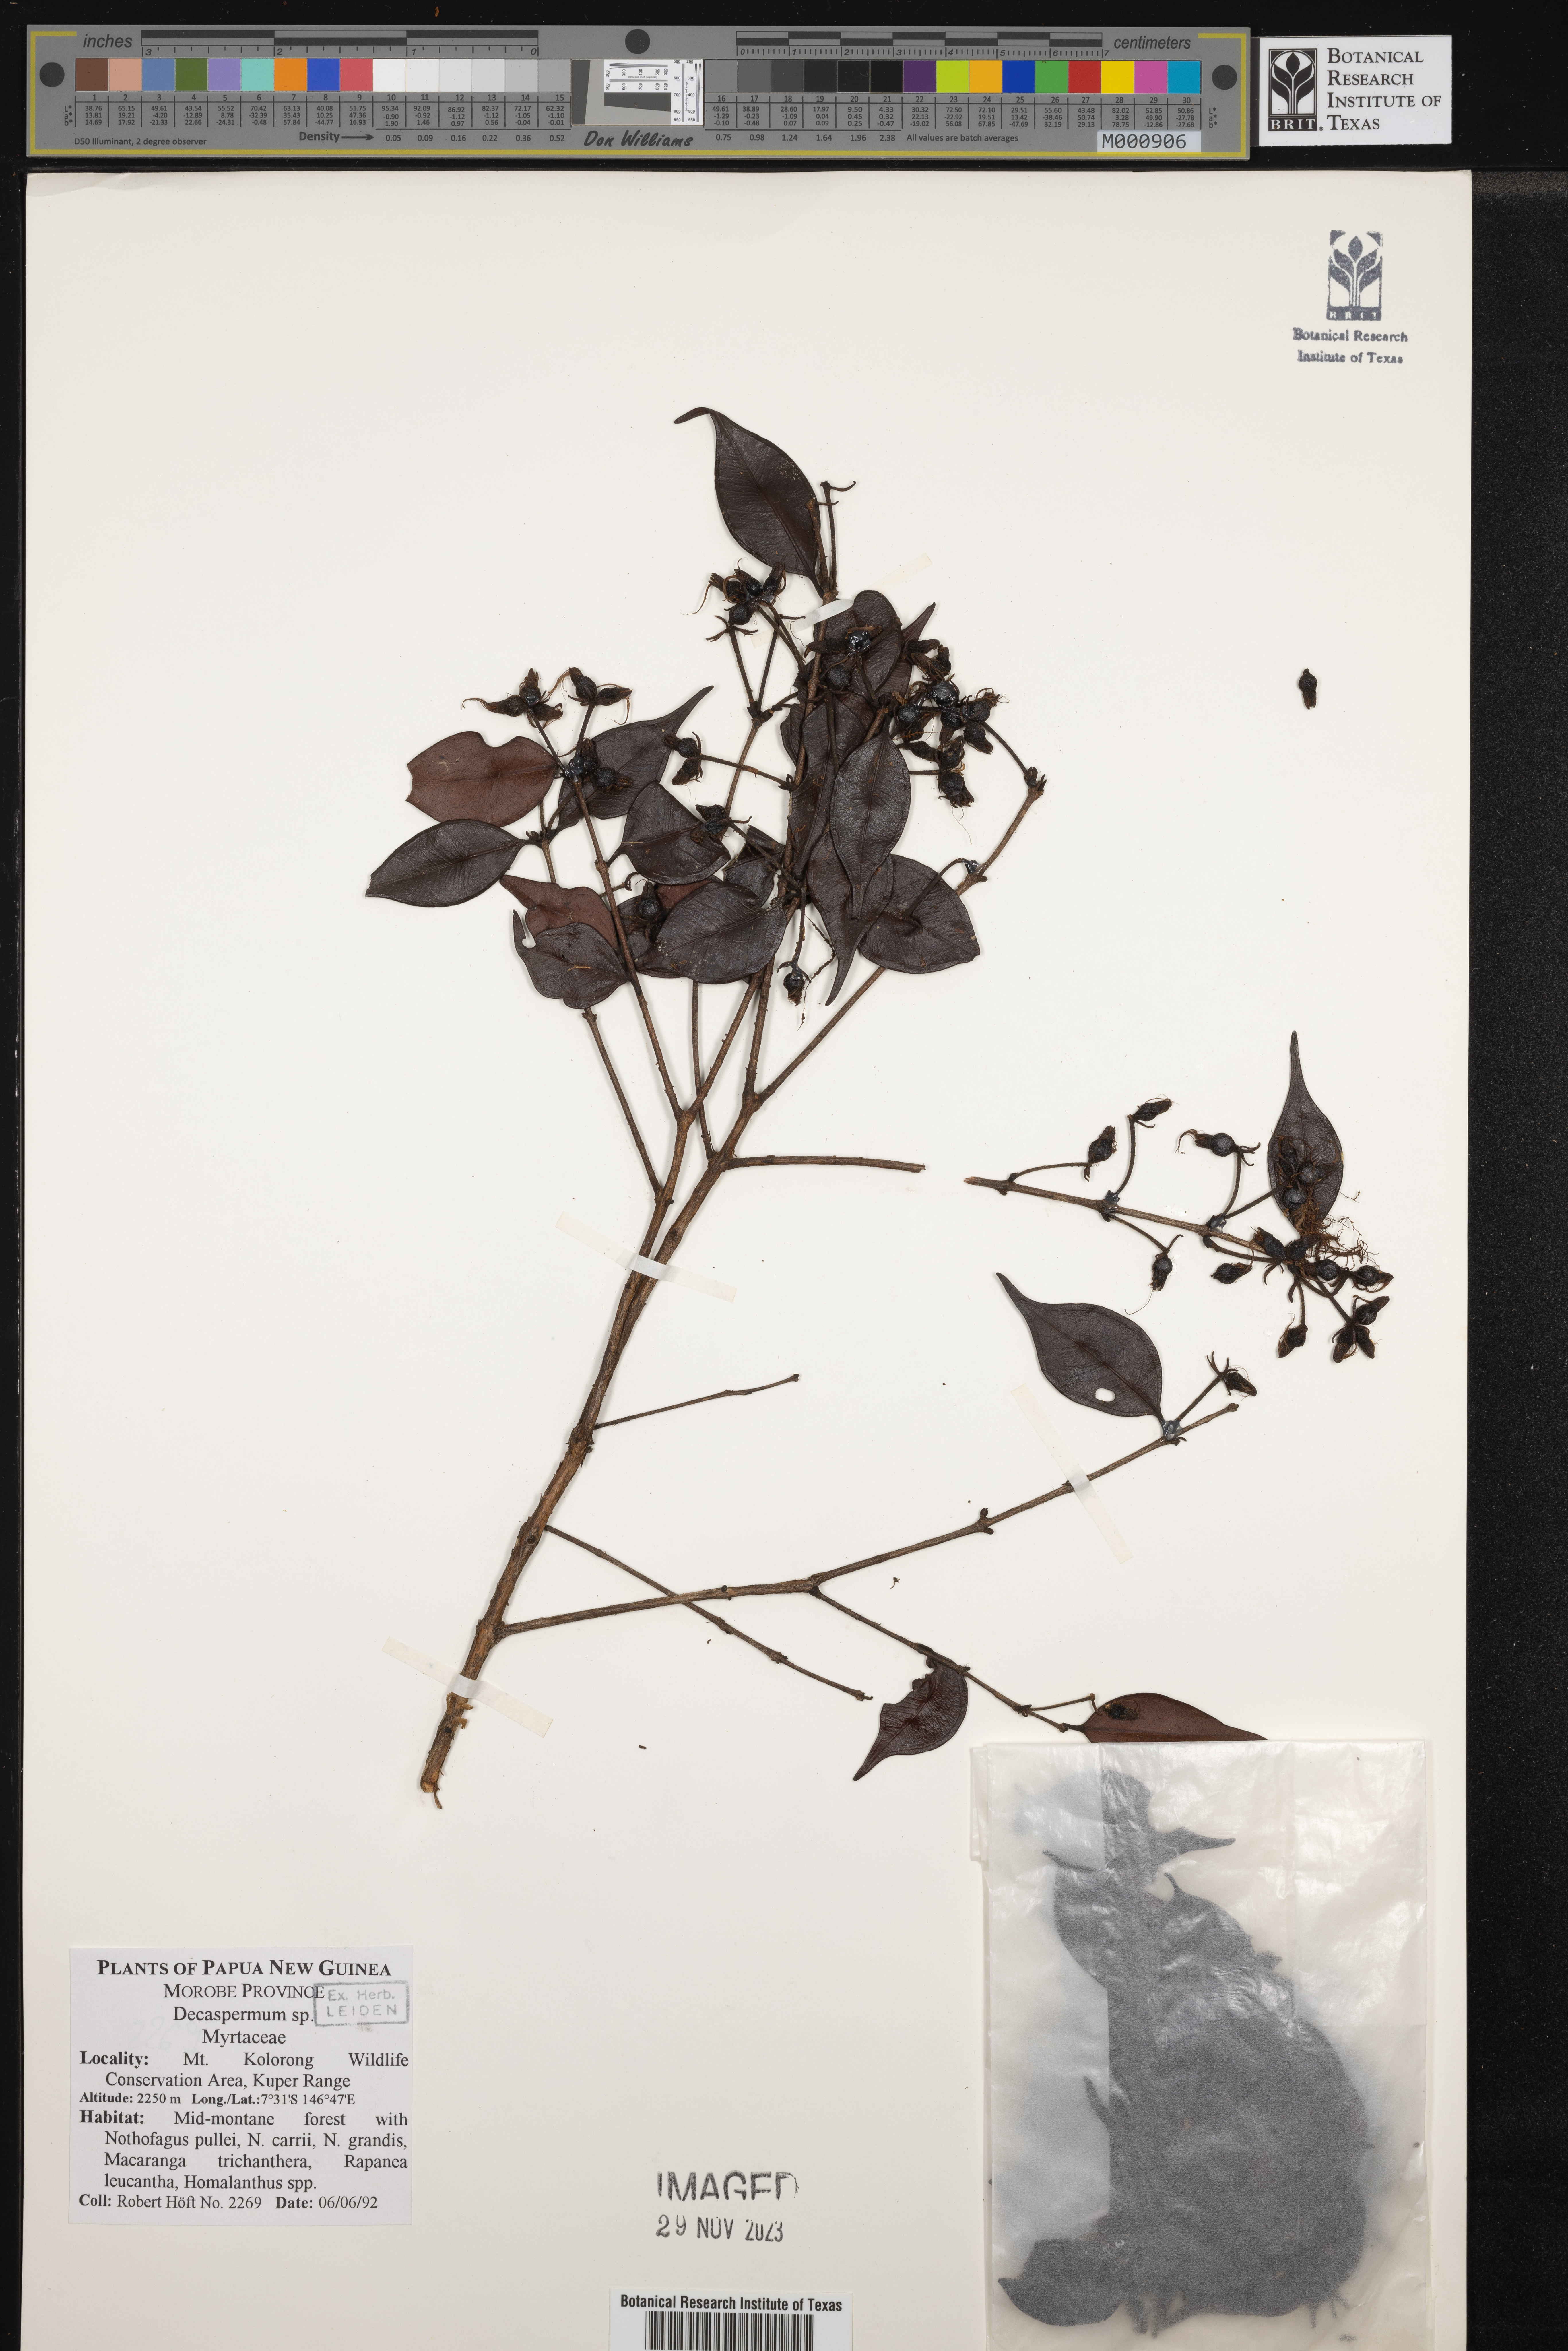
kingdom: Plantae
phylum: Tracheophyta
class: Magnoliopsida
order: Myrtales
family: Myrtaceae
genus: Decaspermum
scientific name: Decaspermum
